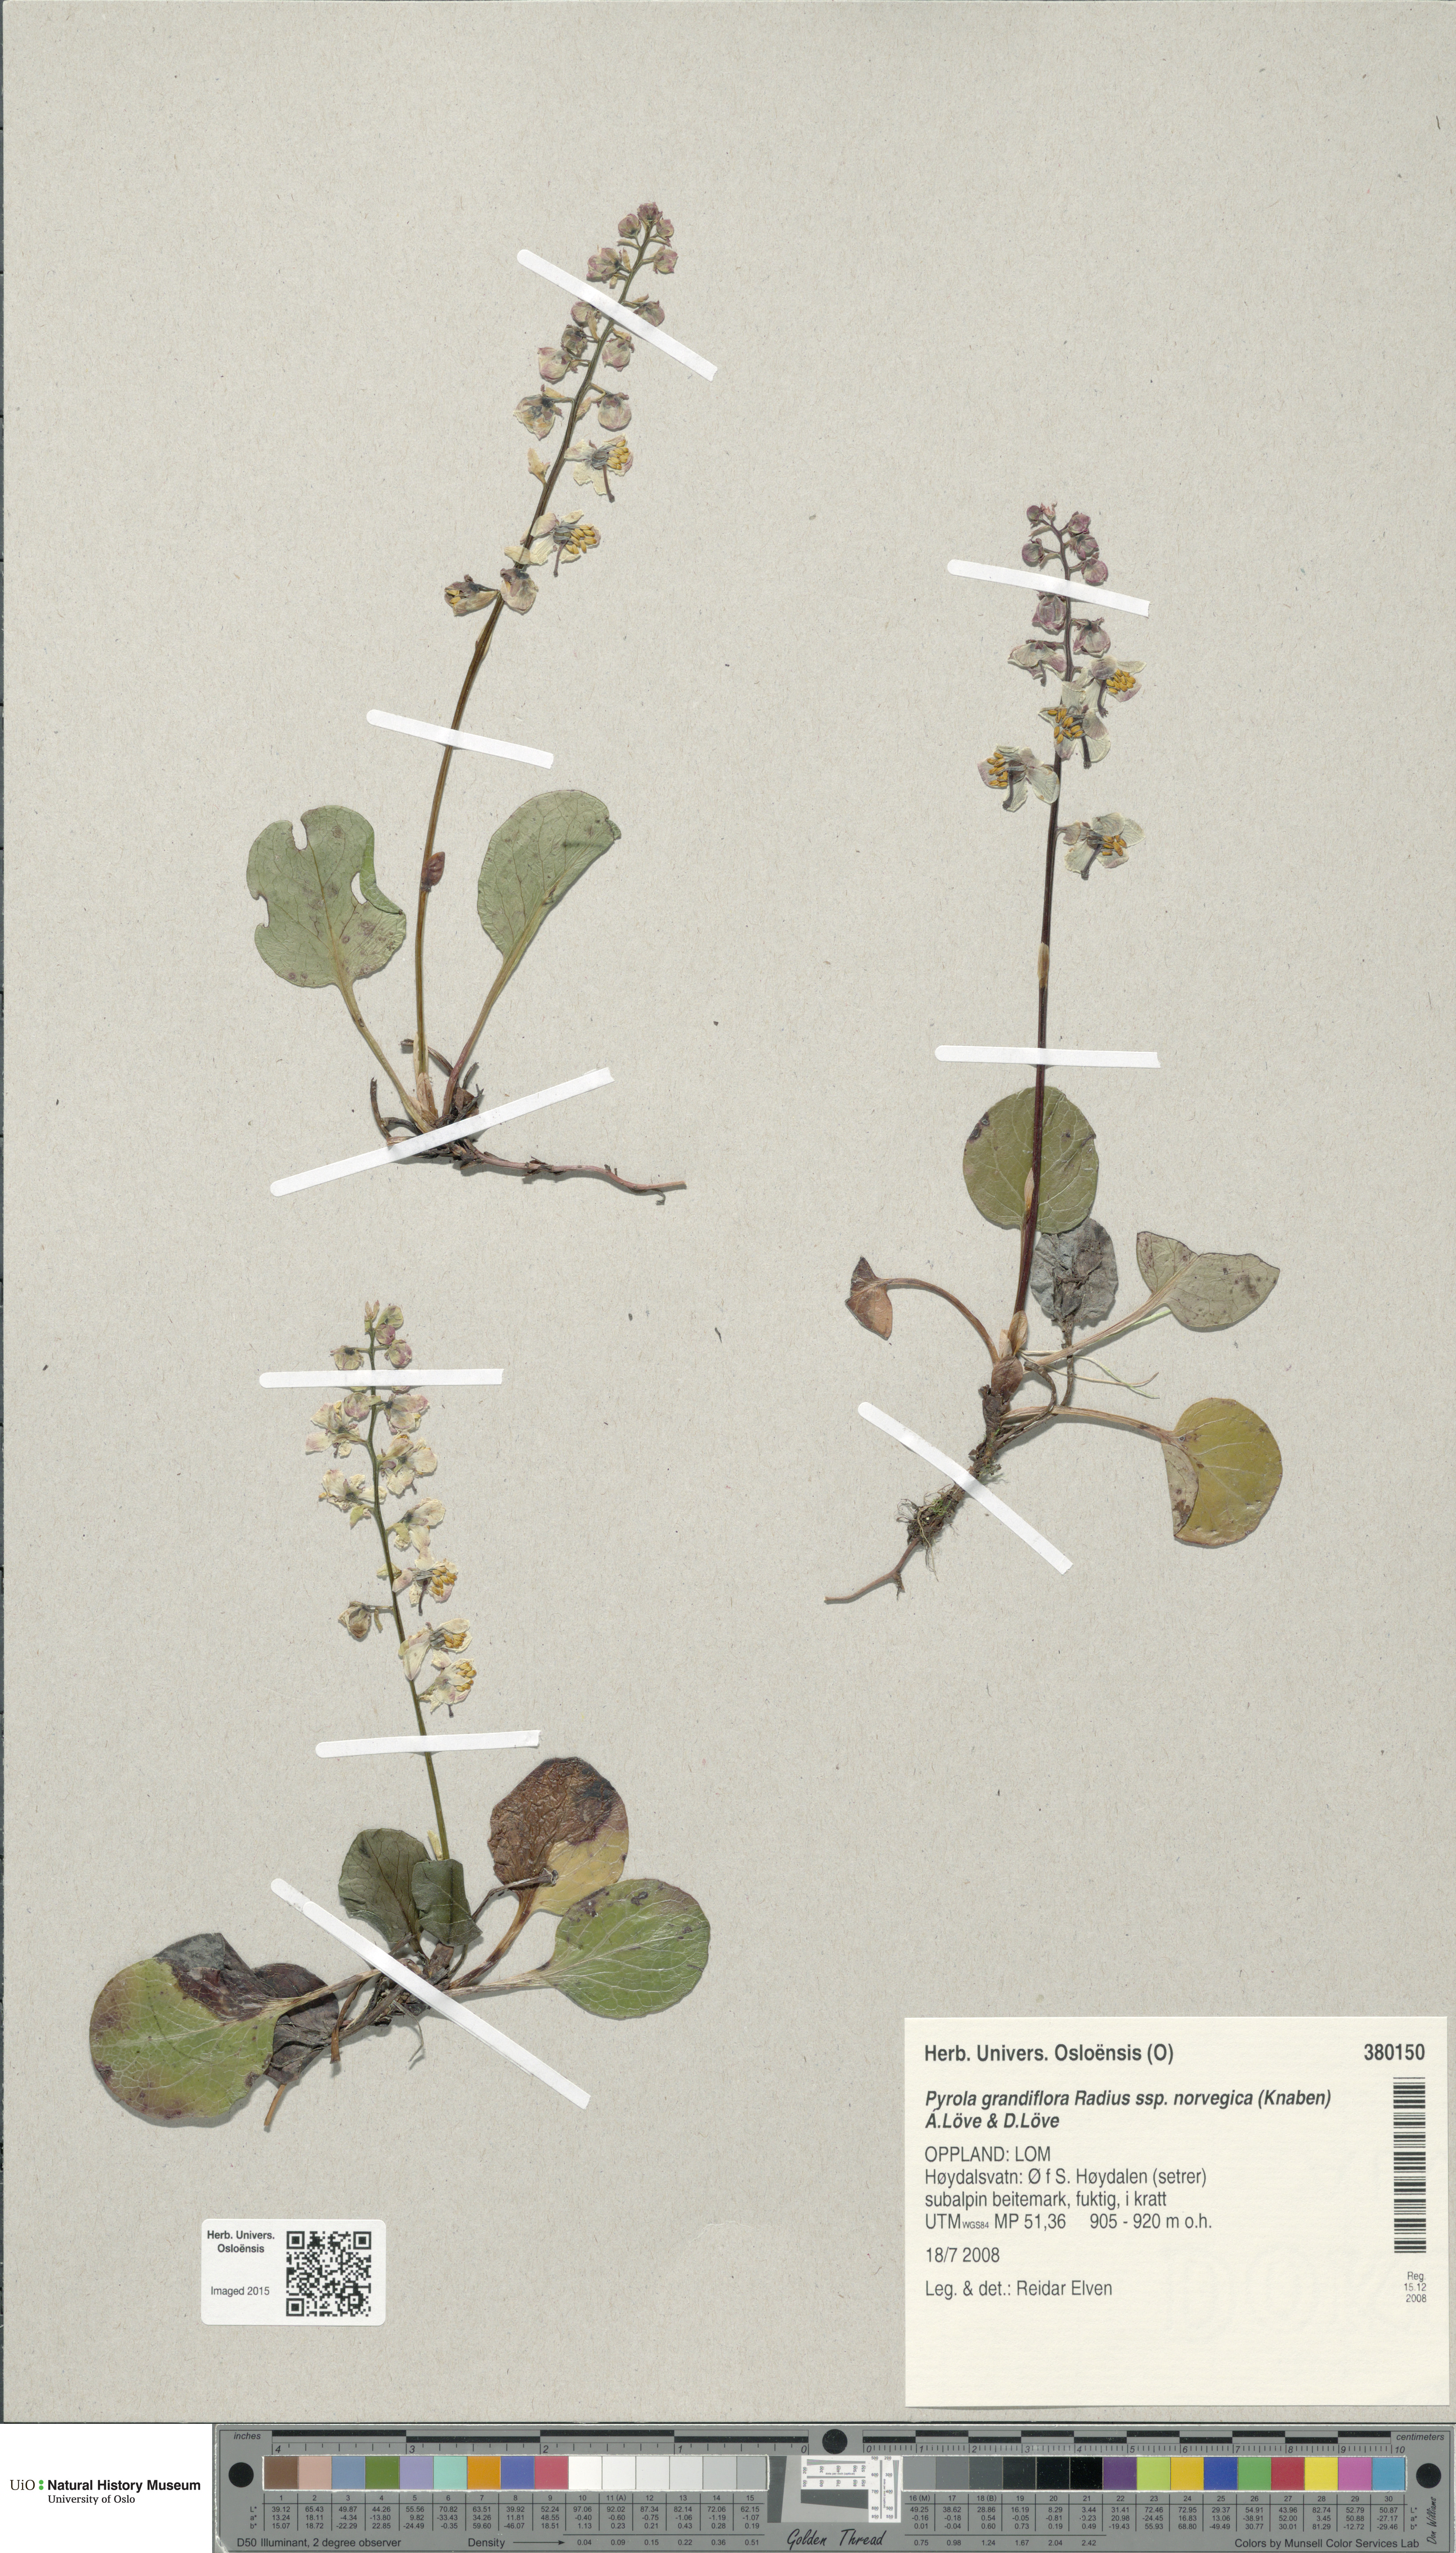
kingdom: Plantae
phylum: Tracheophyta
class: Magnoliopsida
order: Ericales
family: Ericaceae
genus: Pyrola
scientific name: Pyrola rotundifolia
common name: Round-leaved wintergreen
